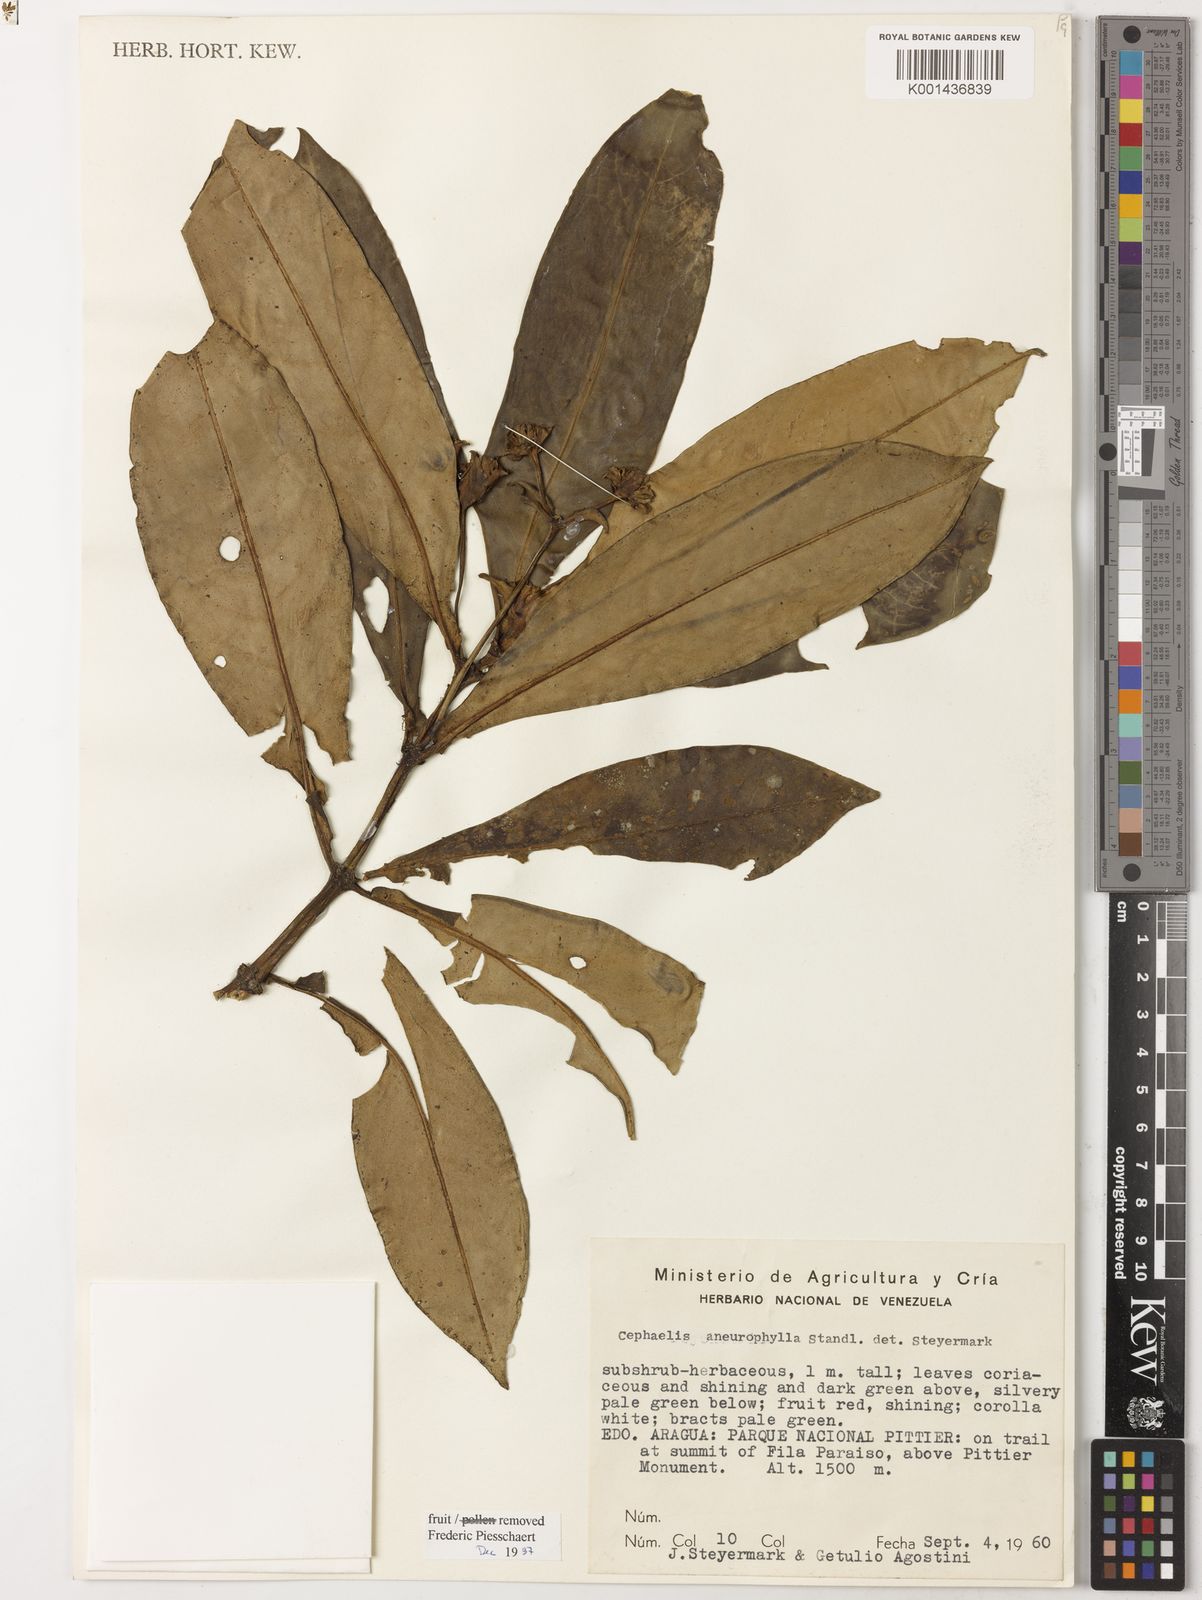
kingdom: Plantae
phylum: Tracheophyta
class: Magnoliopsida
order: Gentianales
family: Rubiaceae
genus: Notopleura
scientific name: Notopleura aneurophylla
